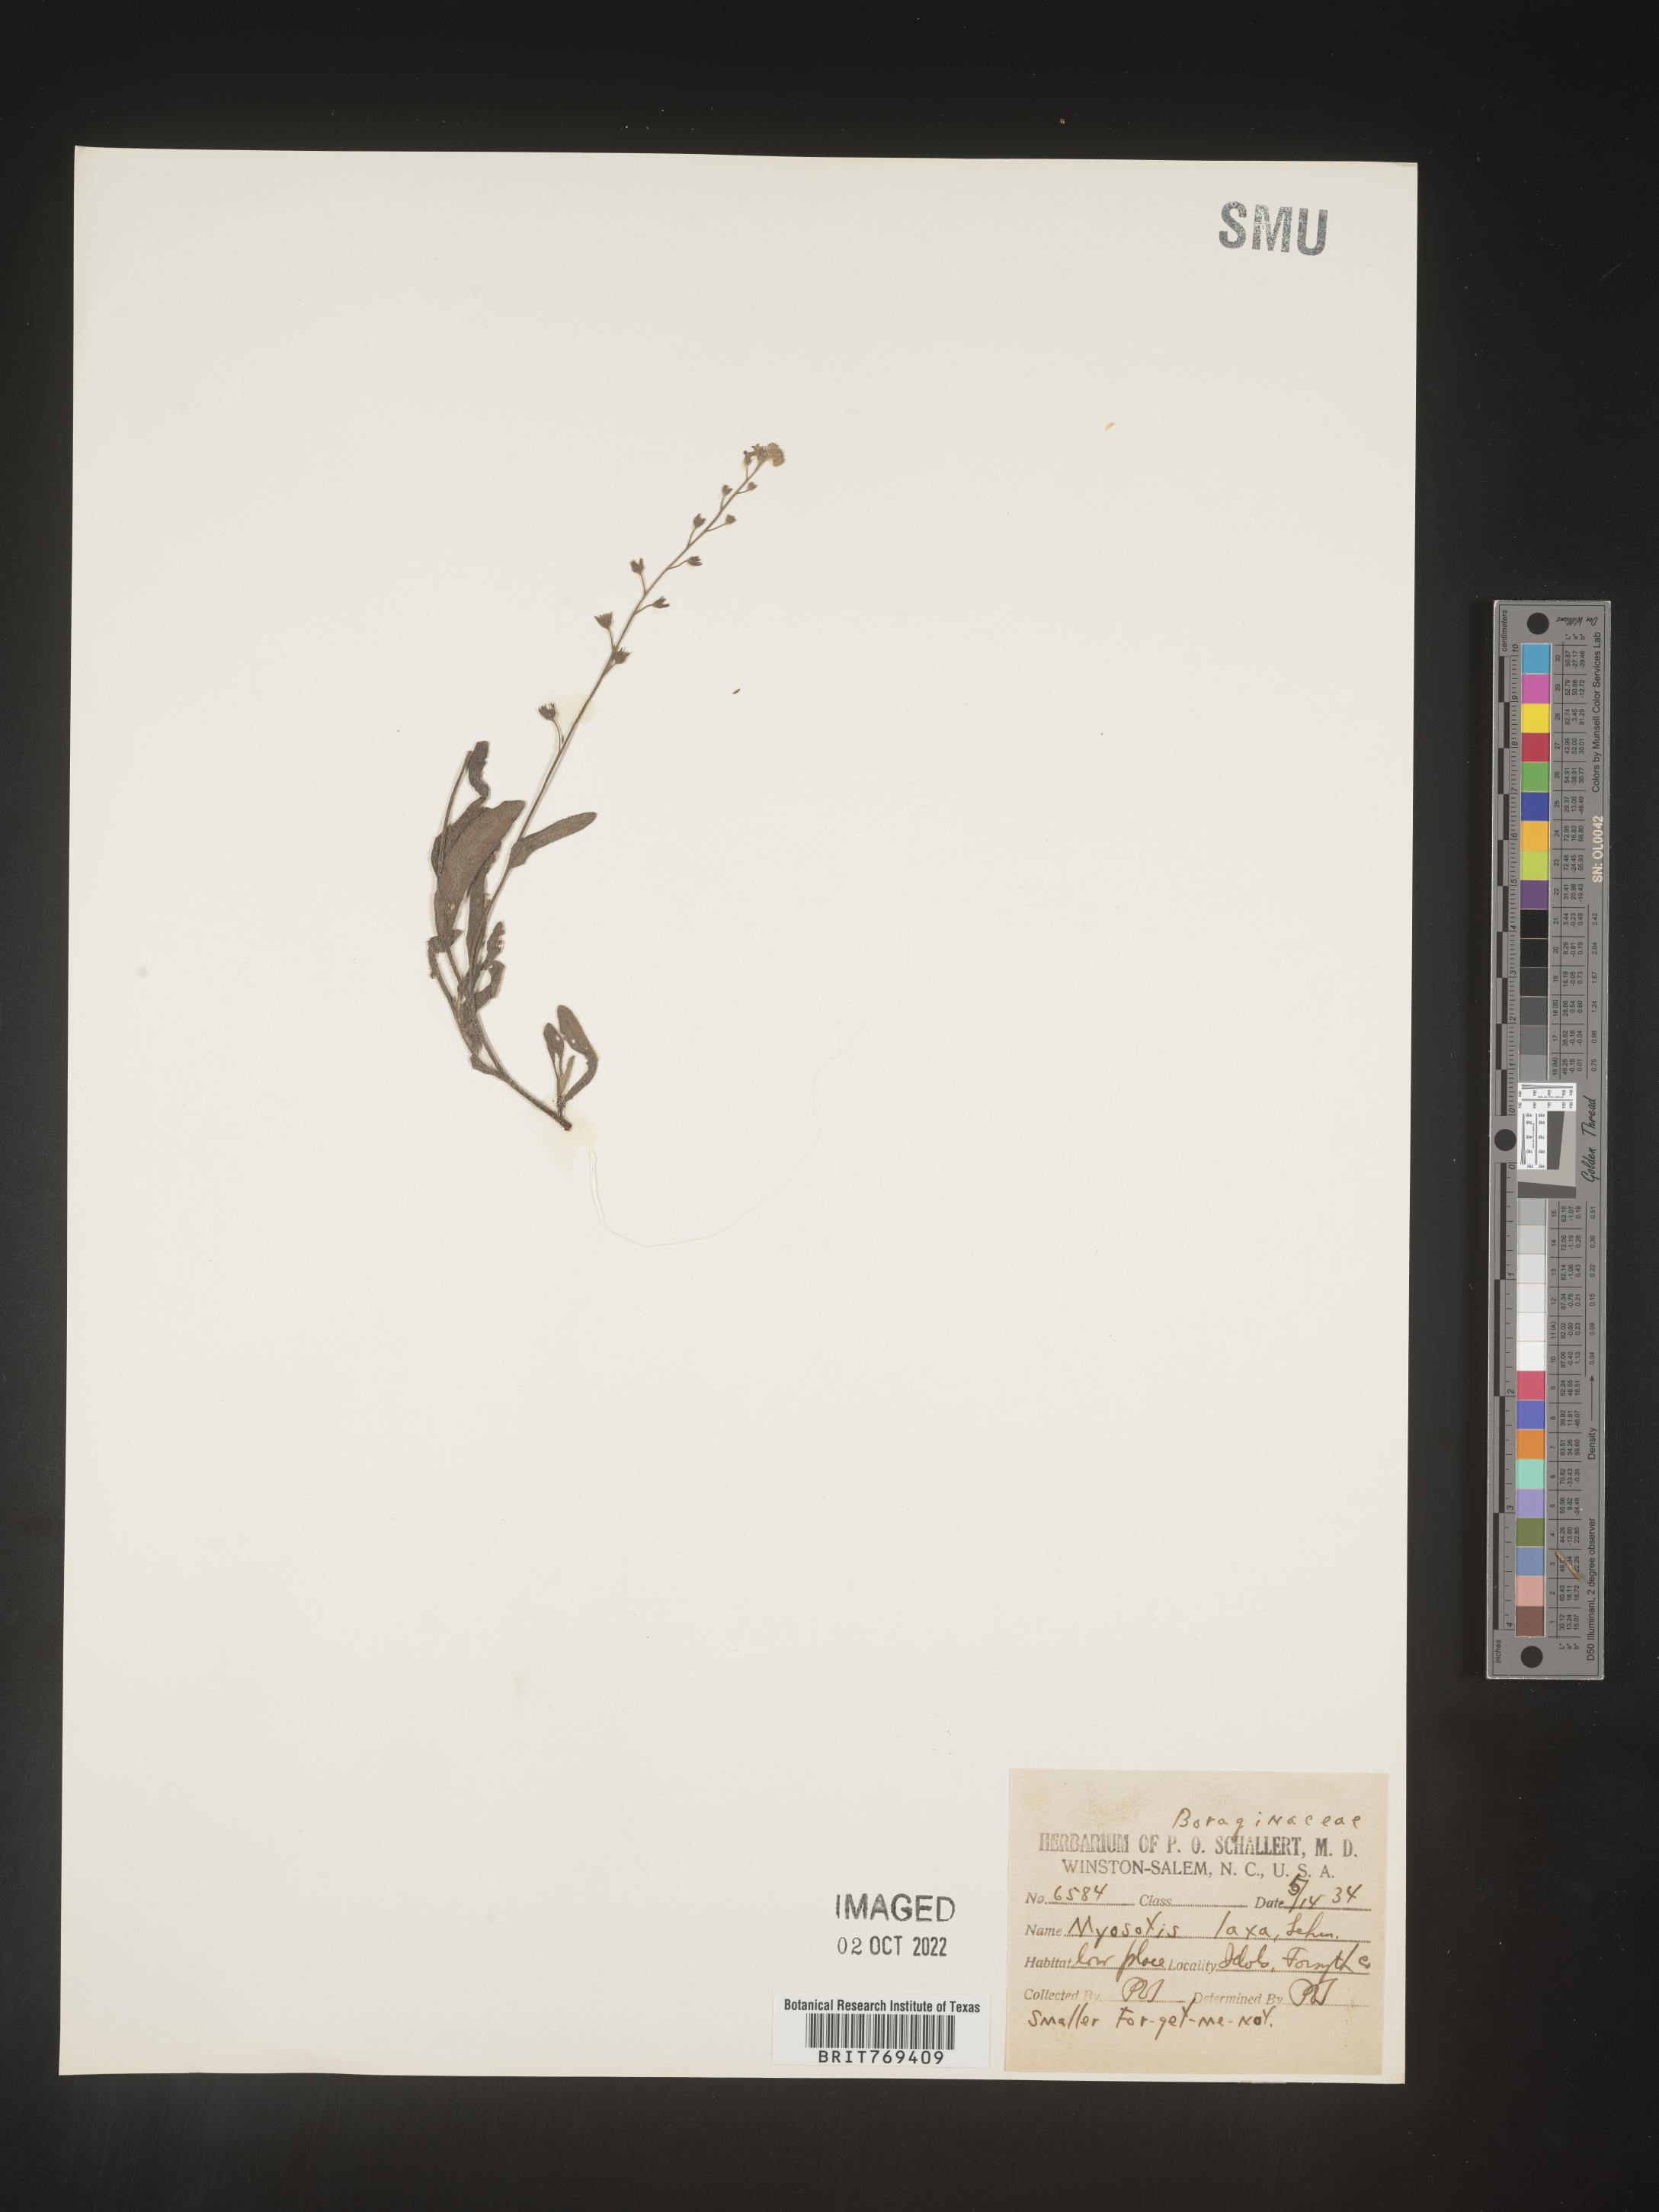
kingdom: Plantae
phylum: Tracheophyta
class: Magnoliopsida
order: Boraginales
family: Boraginaceae
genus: Myosotis
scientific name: Myosotis
